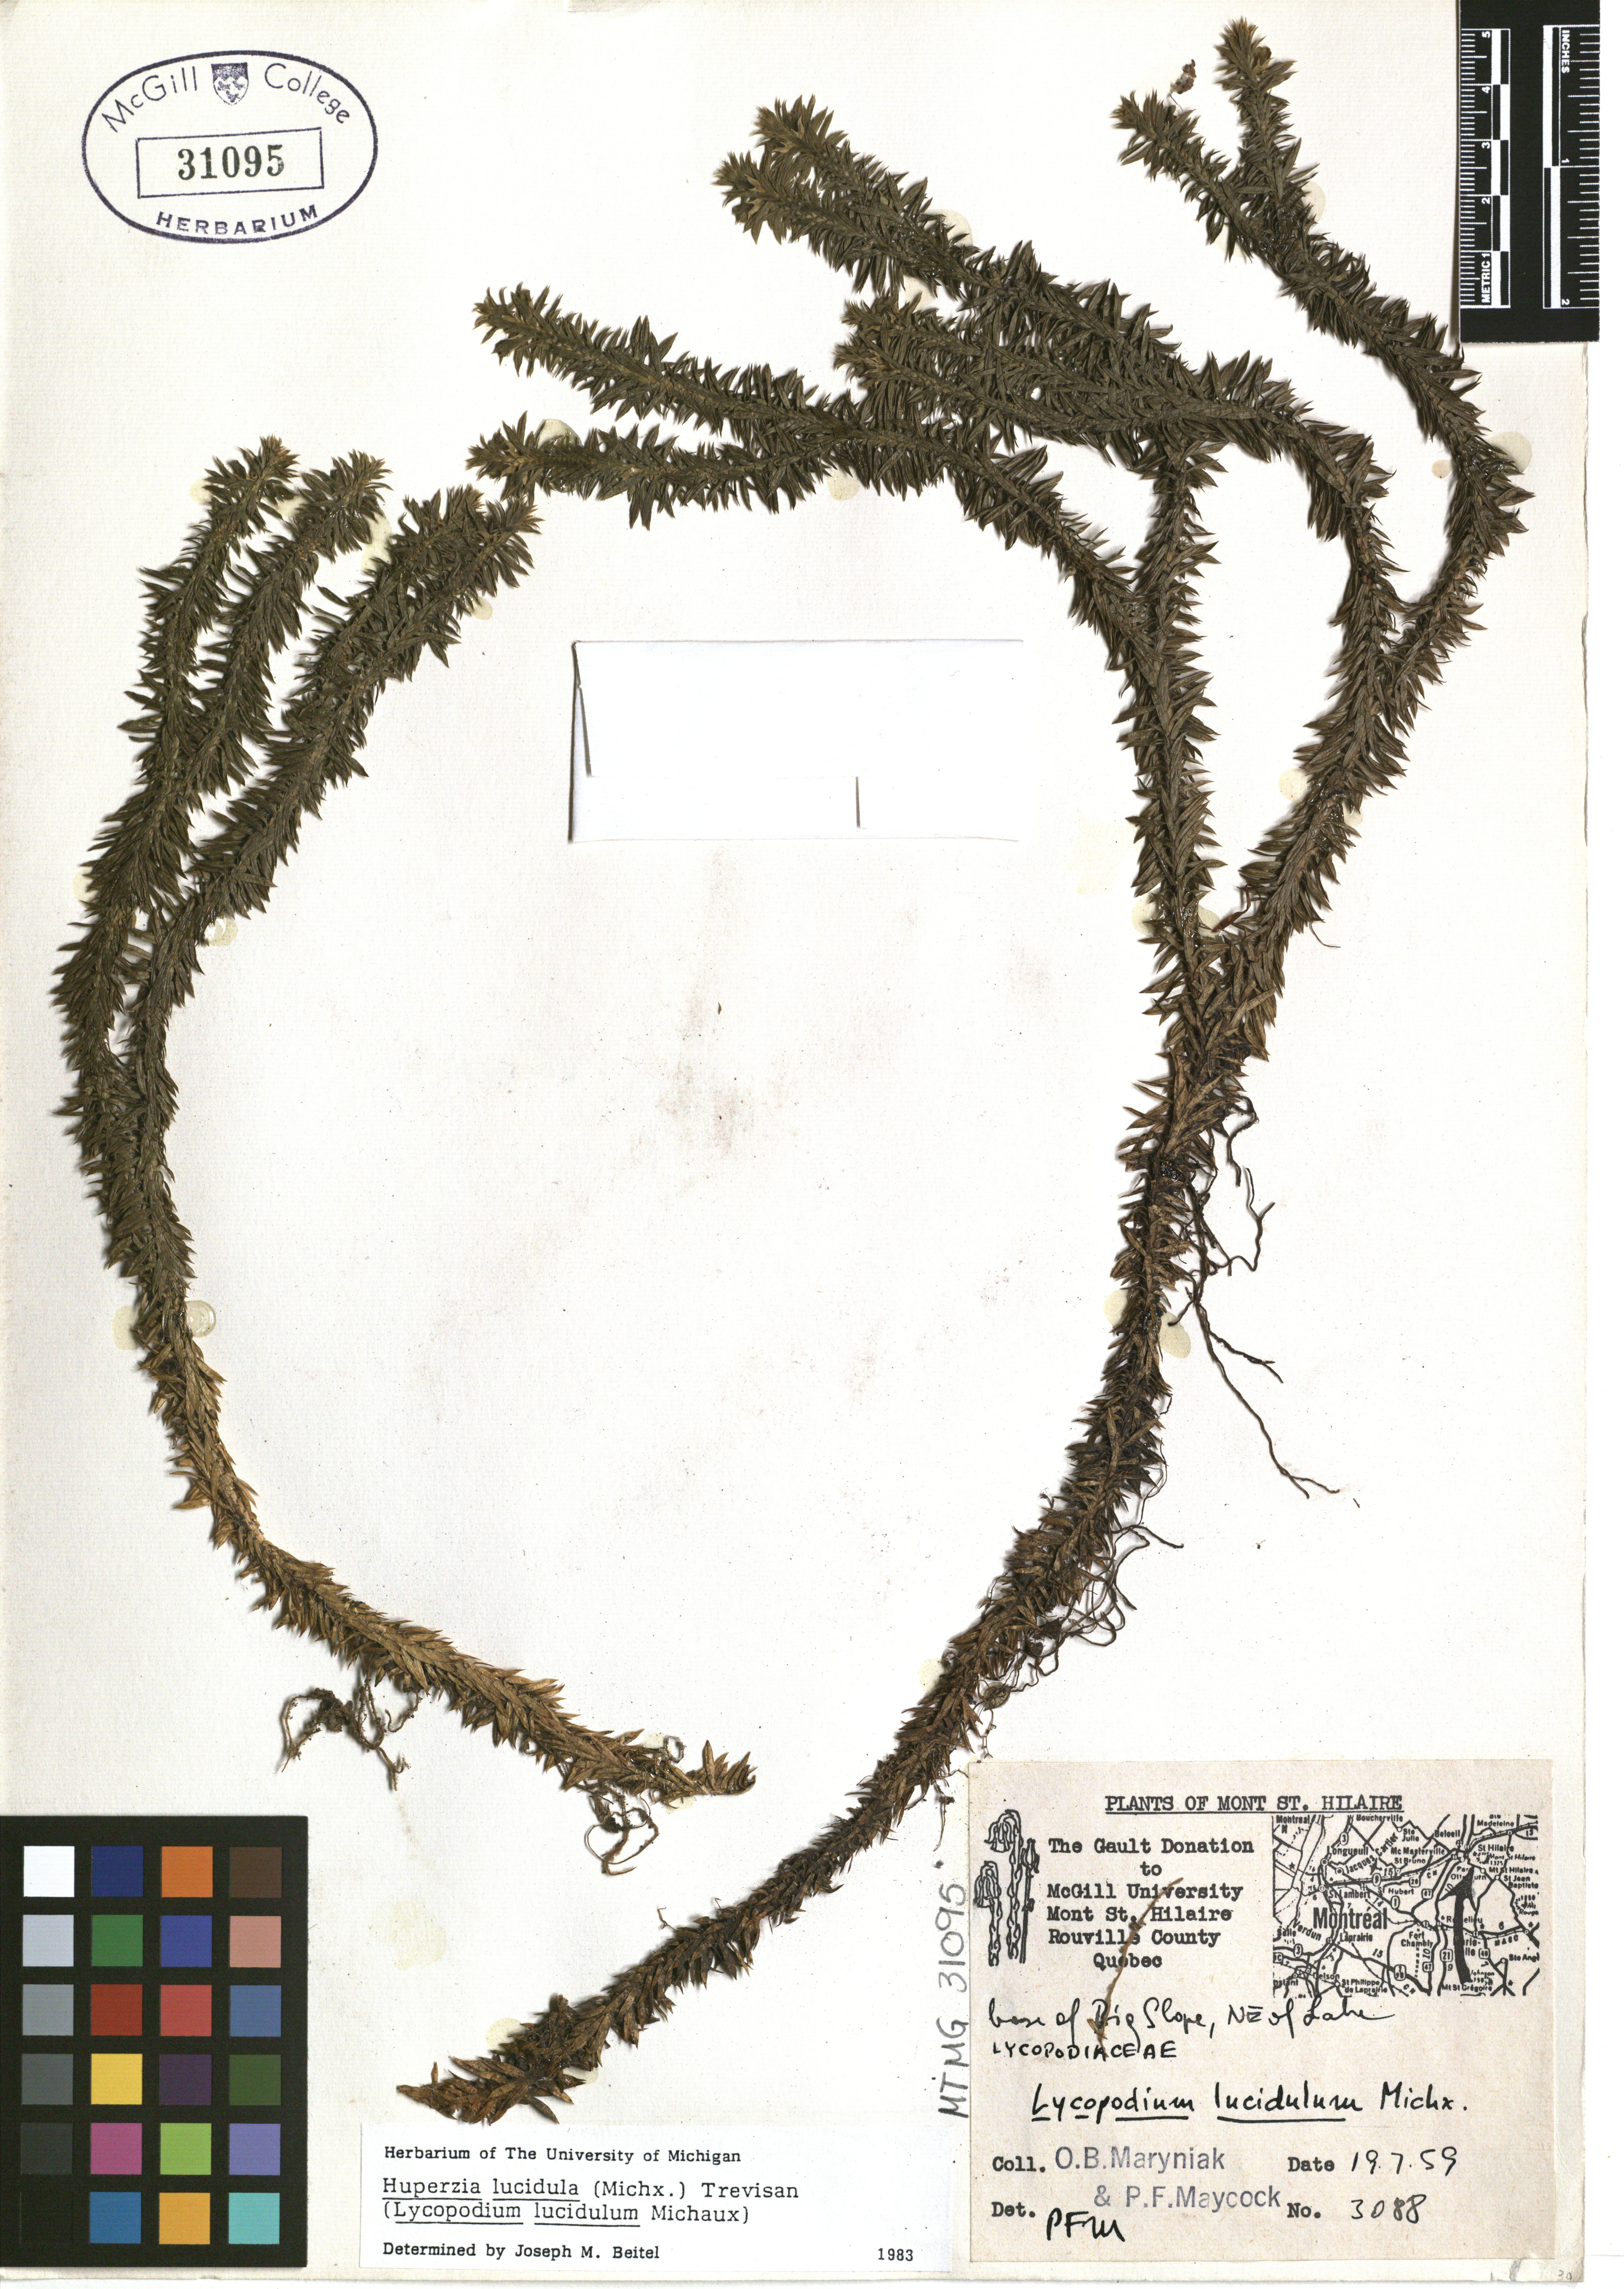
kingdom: Plantae
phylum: Tracheophyta
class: Lycopodiopsida
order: Lycopodiales
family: Lycopodiaceae
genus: Huperzia
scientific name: Huperzia lucidula
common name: Shining clubmoss
